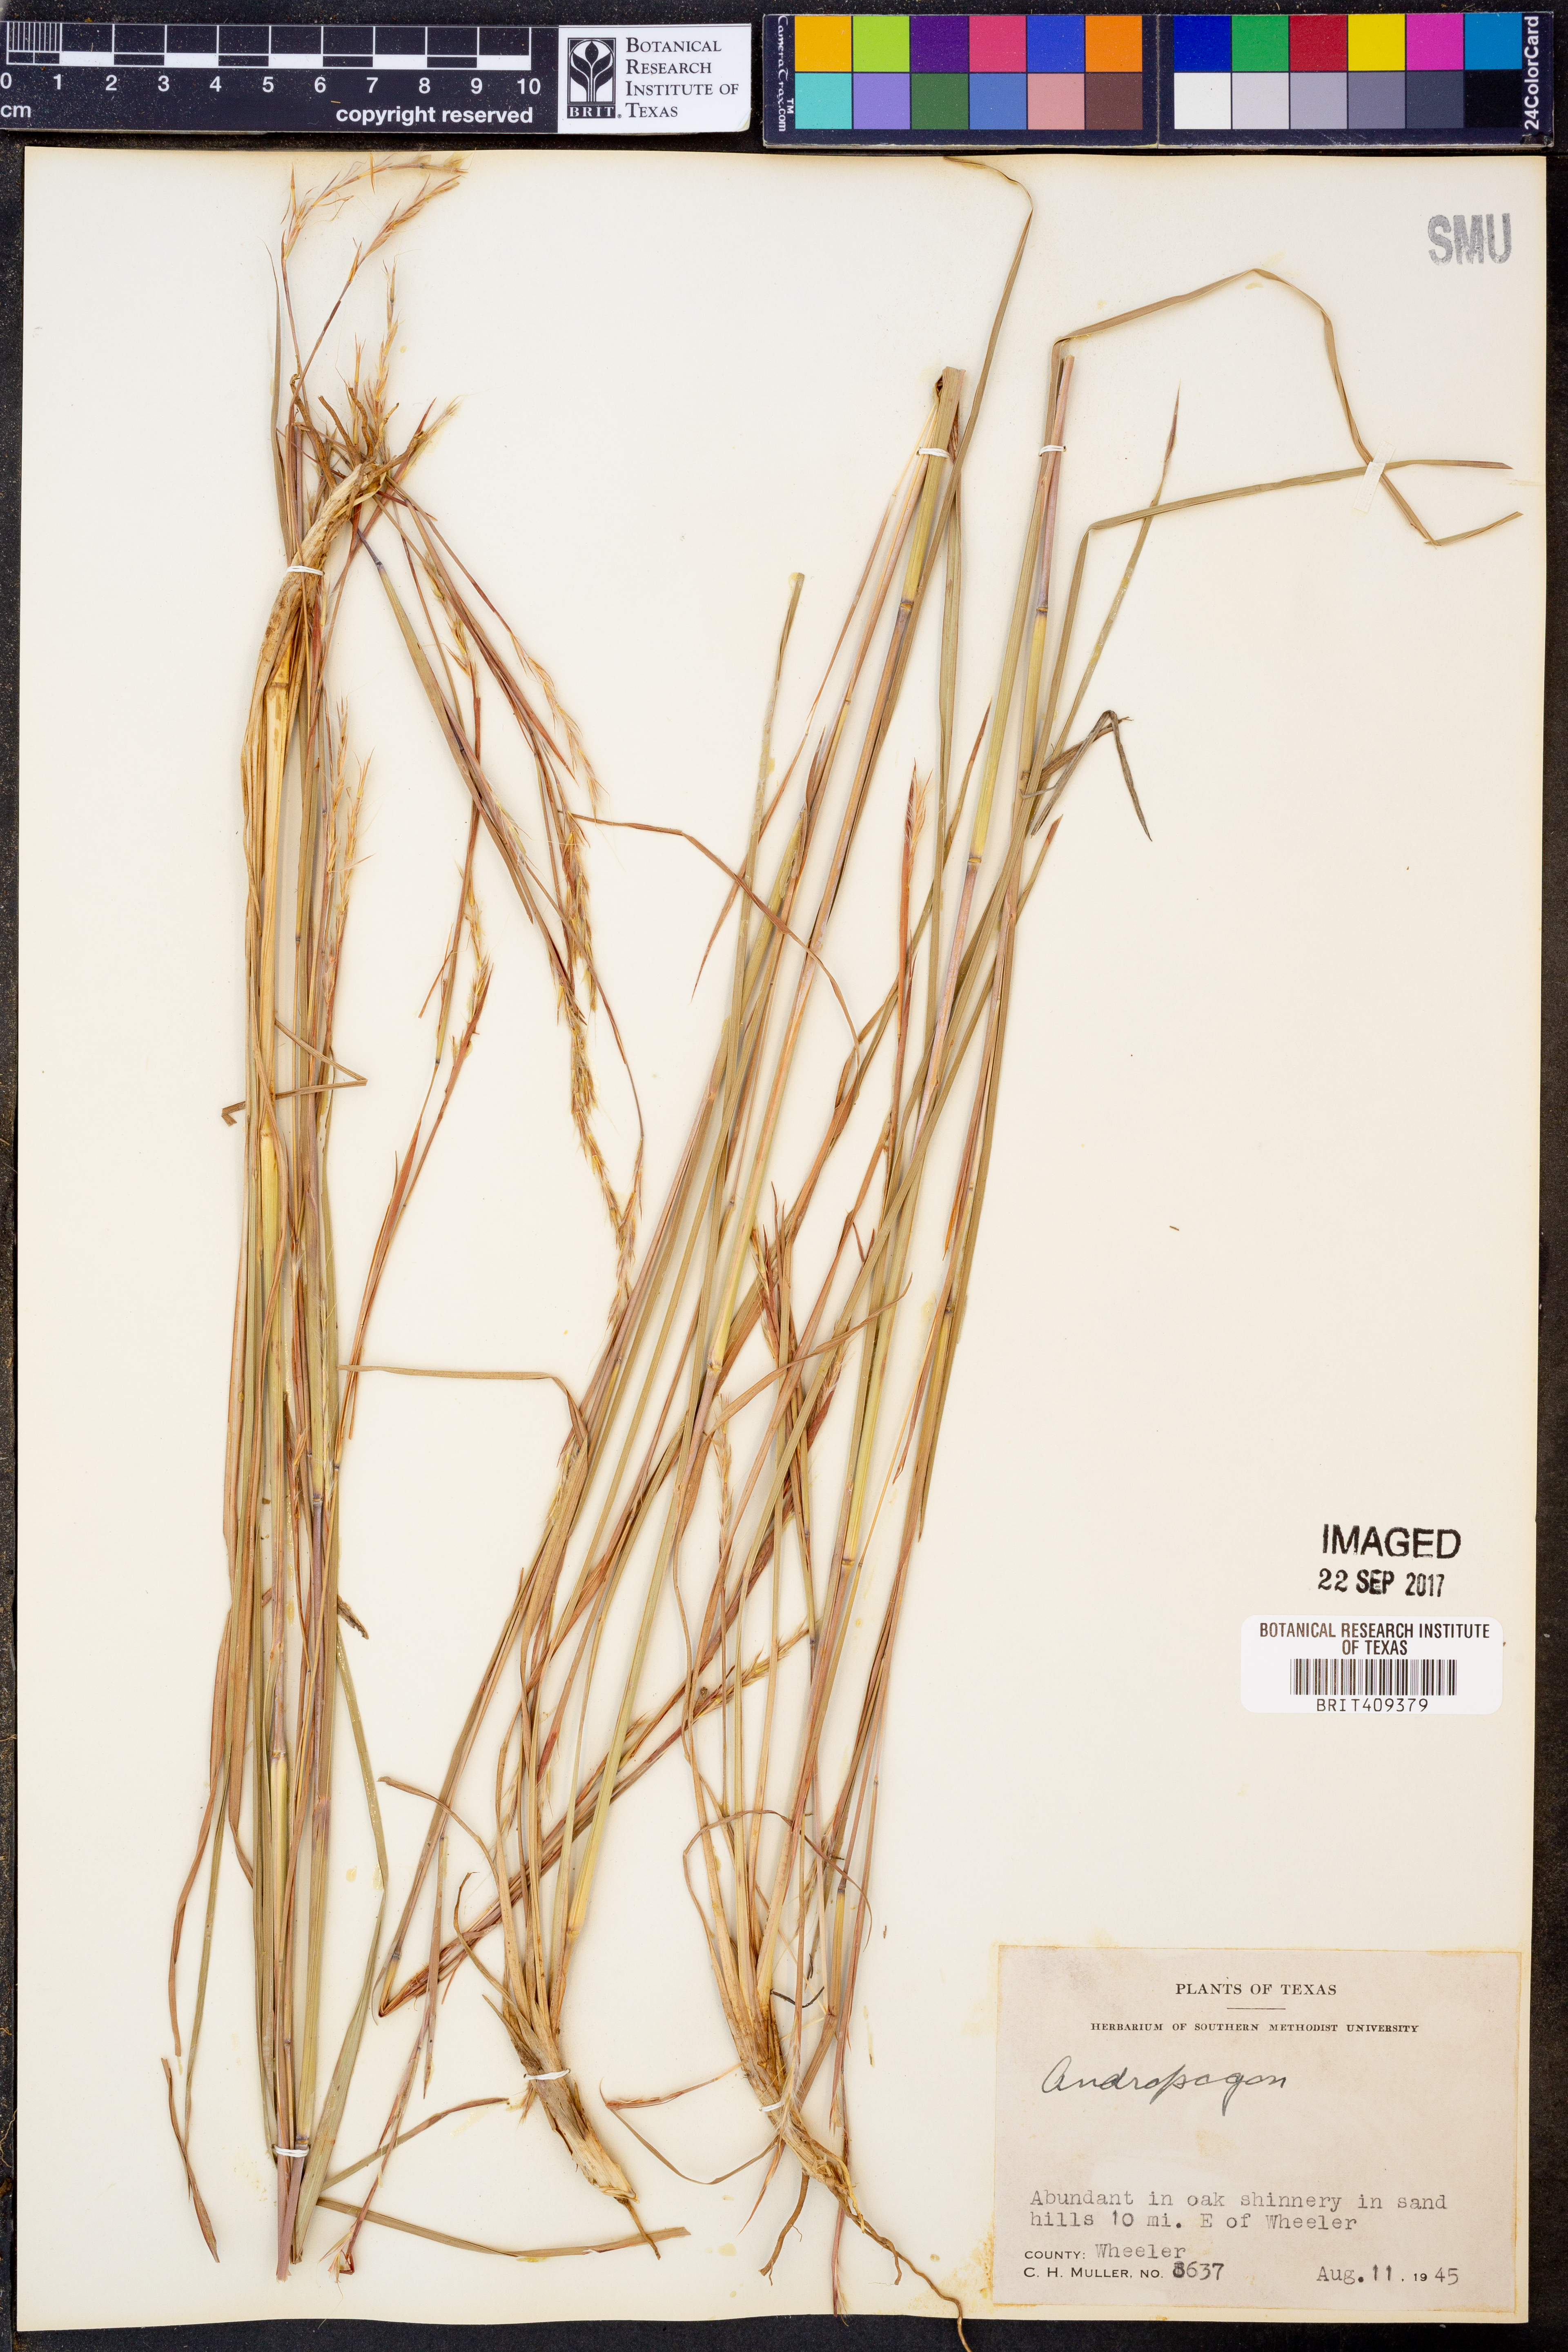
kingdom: Plantae
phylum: Tracheophyta
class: Liliopsida
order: Poales
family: Poaceae
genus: Andropogon
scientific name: Andropogon
